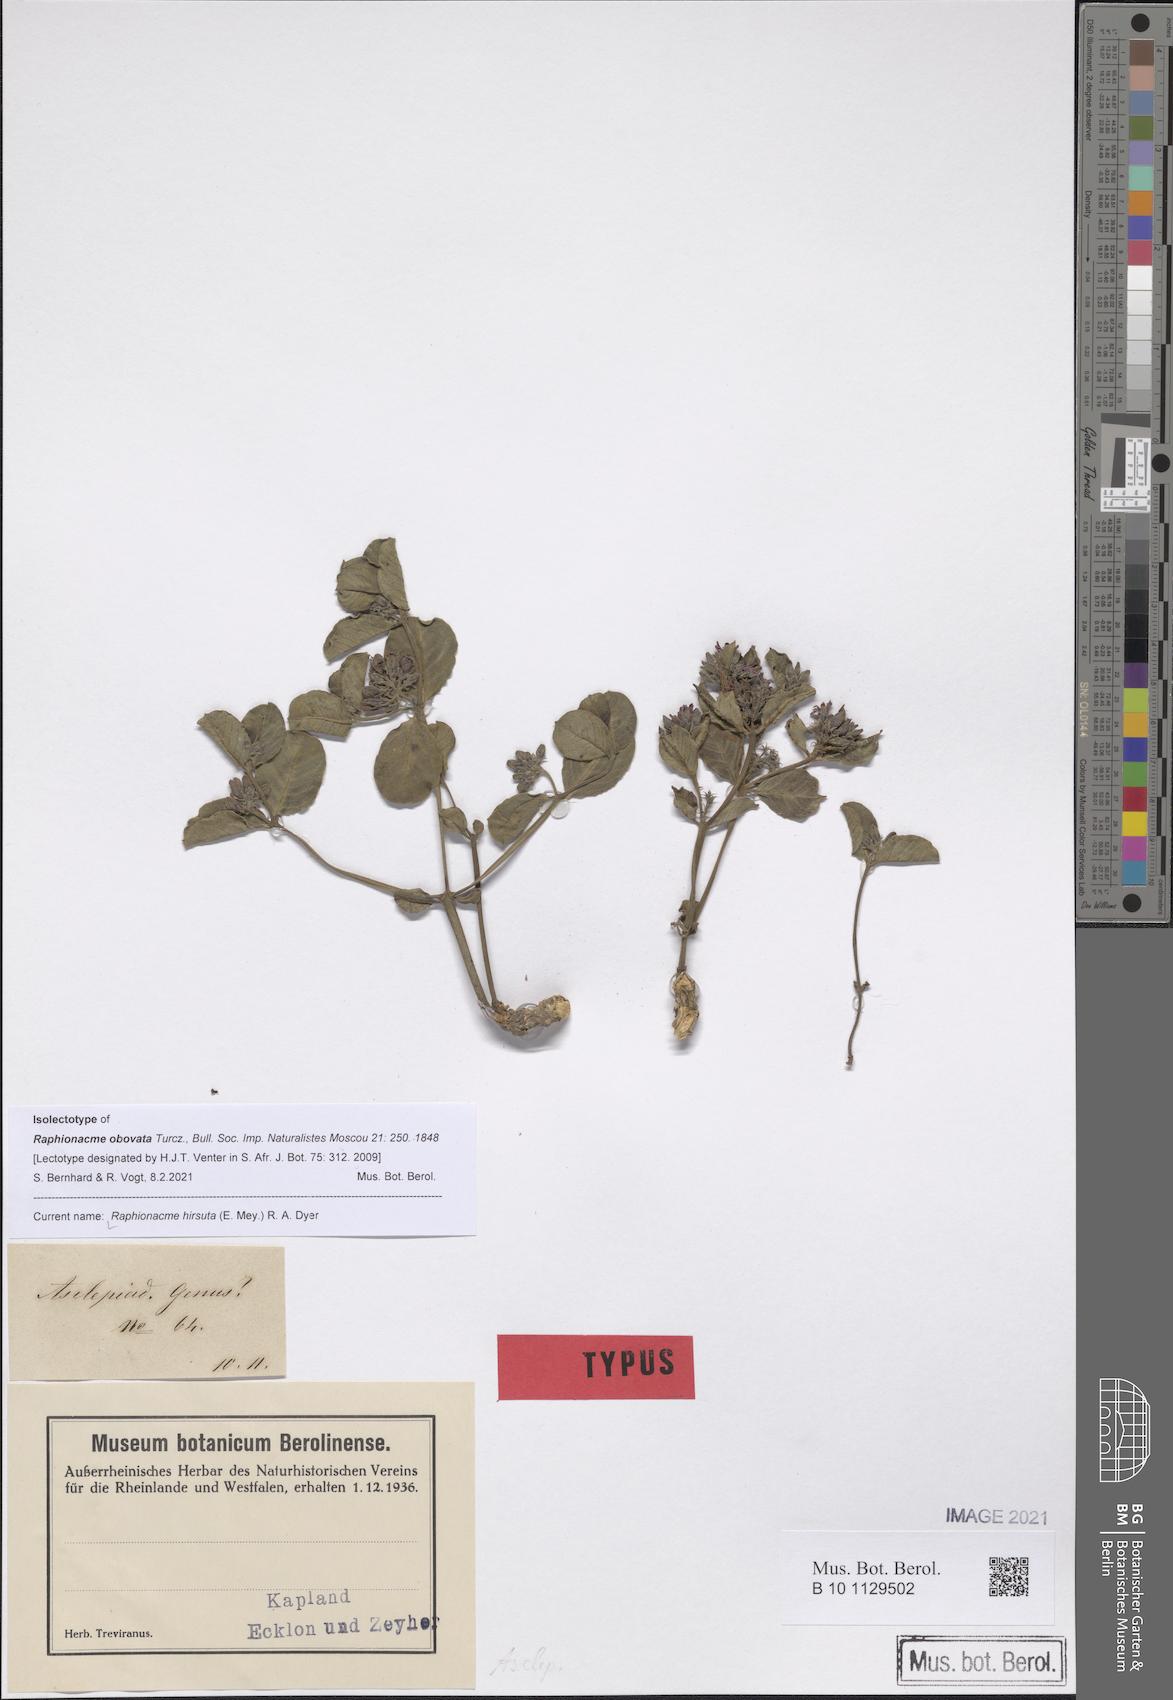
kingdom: Plantae
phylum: Tracheophyta
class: Magnoliopsida
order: Gentianales
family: Apocynaceae
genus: Raphionacme
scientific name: Raphionacme hirsuta
